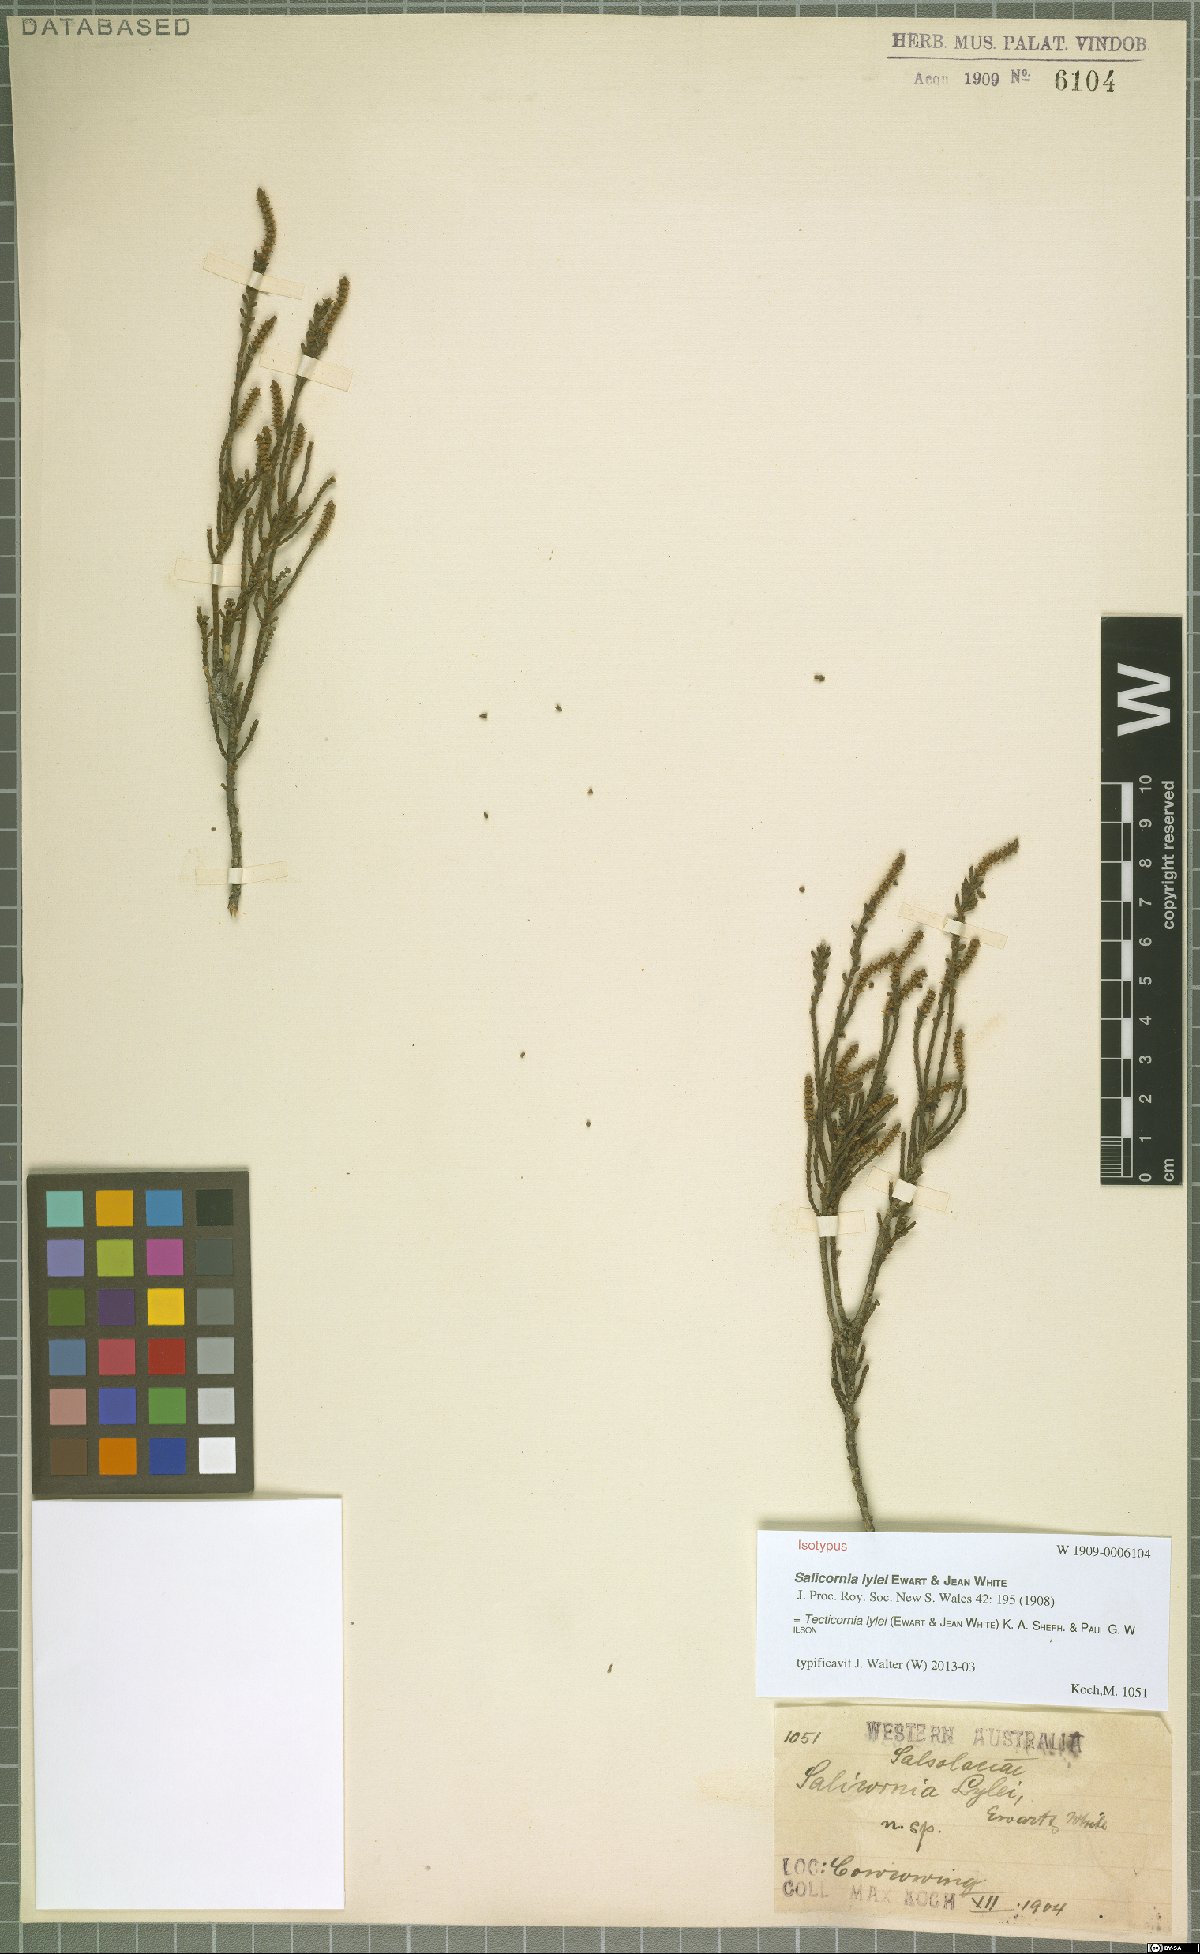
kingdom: Plantae
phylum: Tracheophyta
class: Magnoliopsida
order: Caryophyllales
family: Amaranthaceae
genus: Tecticornia
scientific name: Tecticornia lylei
